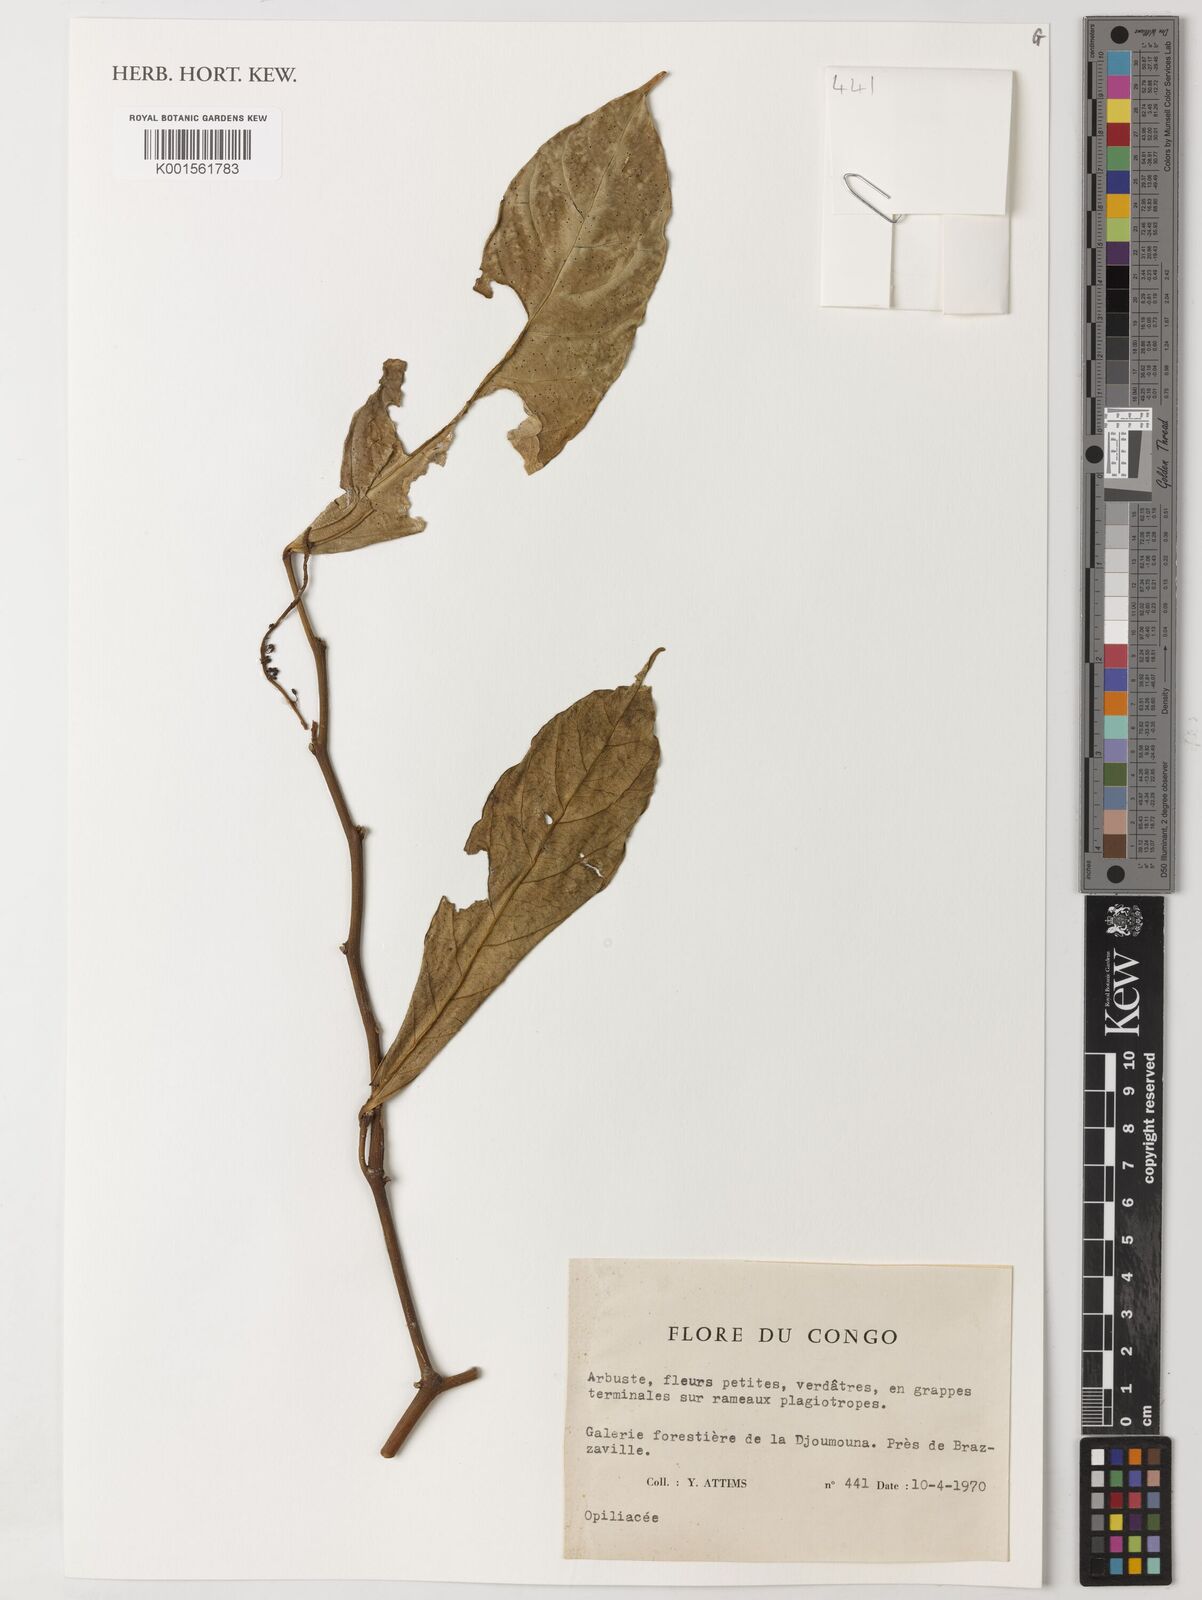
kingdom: Plantae
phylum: Tracheophyta
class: Magnoliopsida
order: Santalales
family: Opiliaceae
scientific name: Opiliaceae
